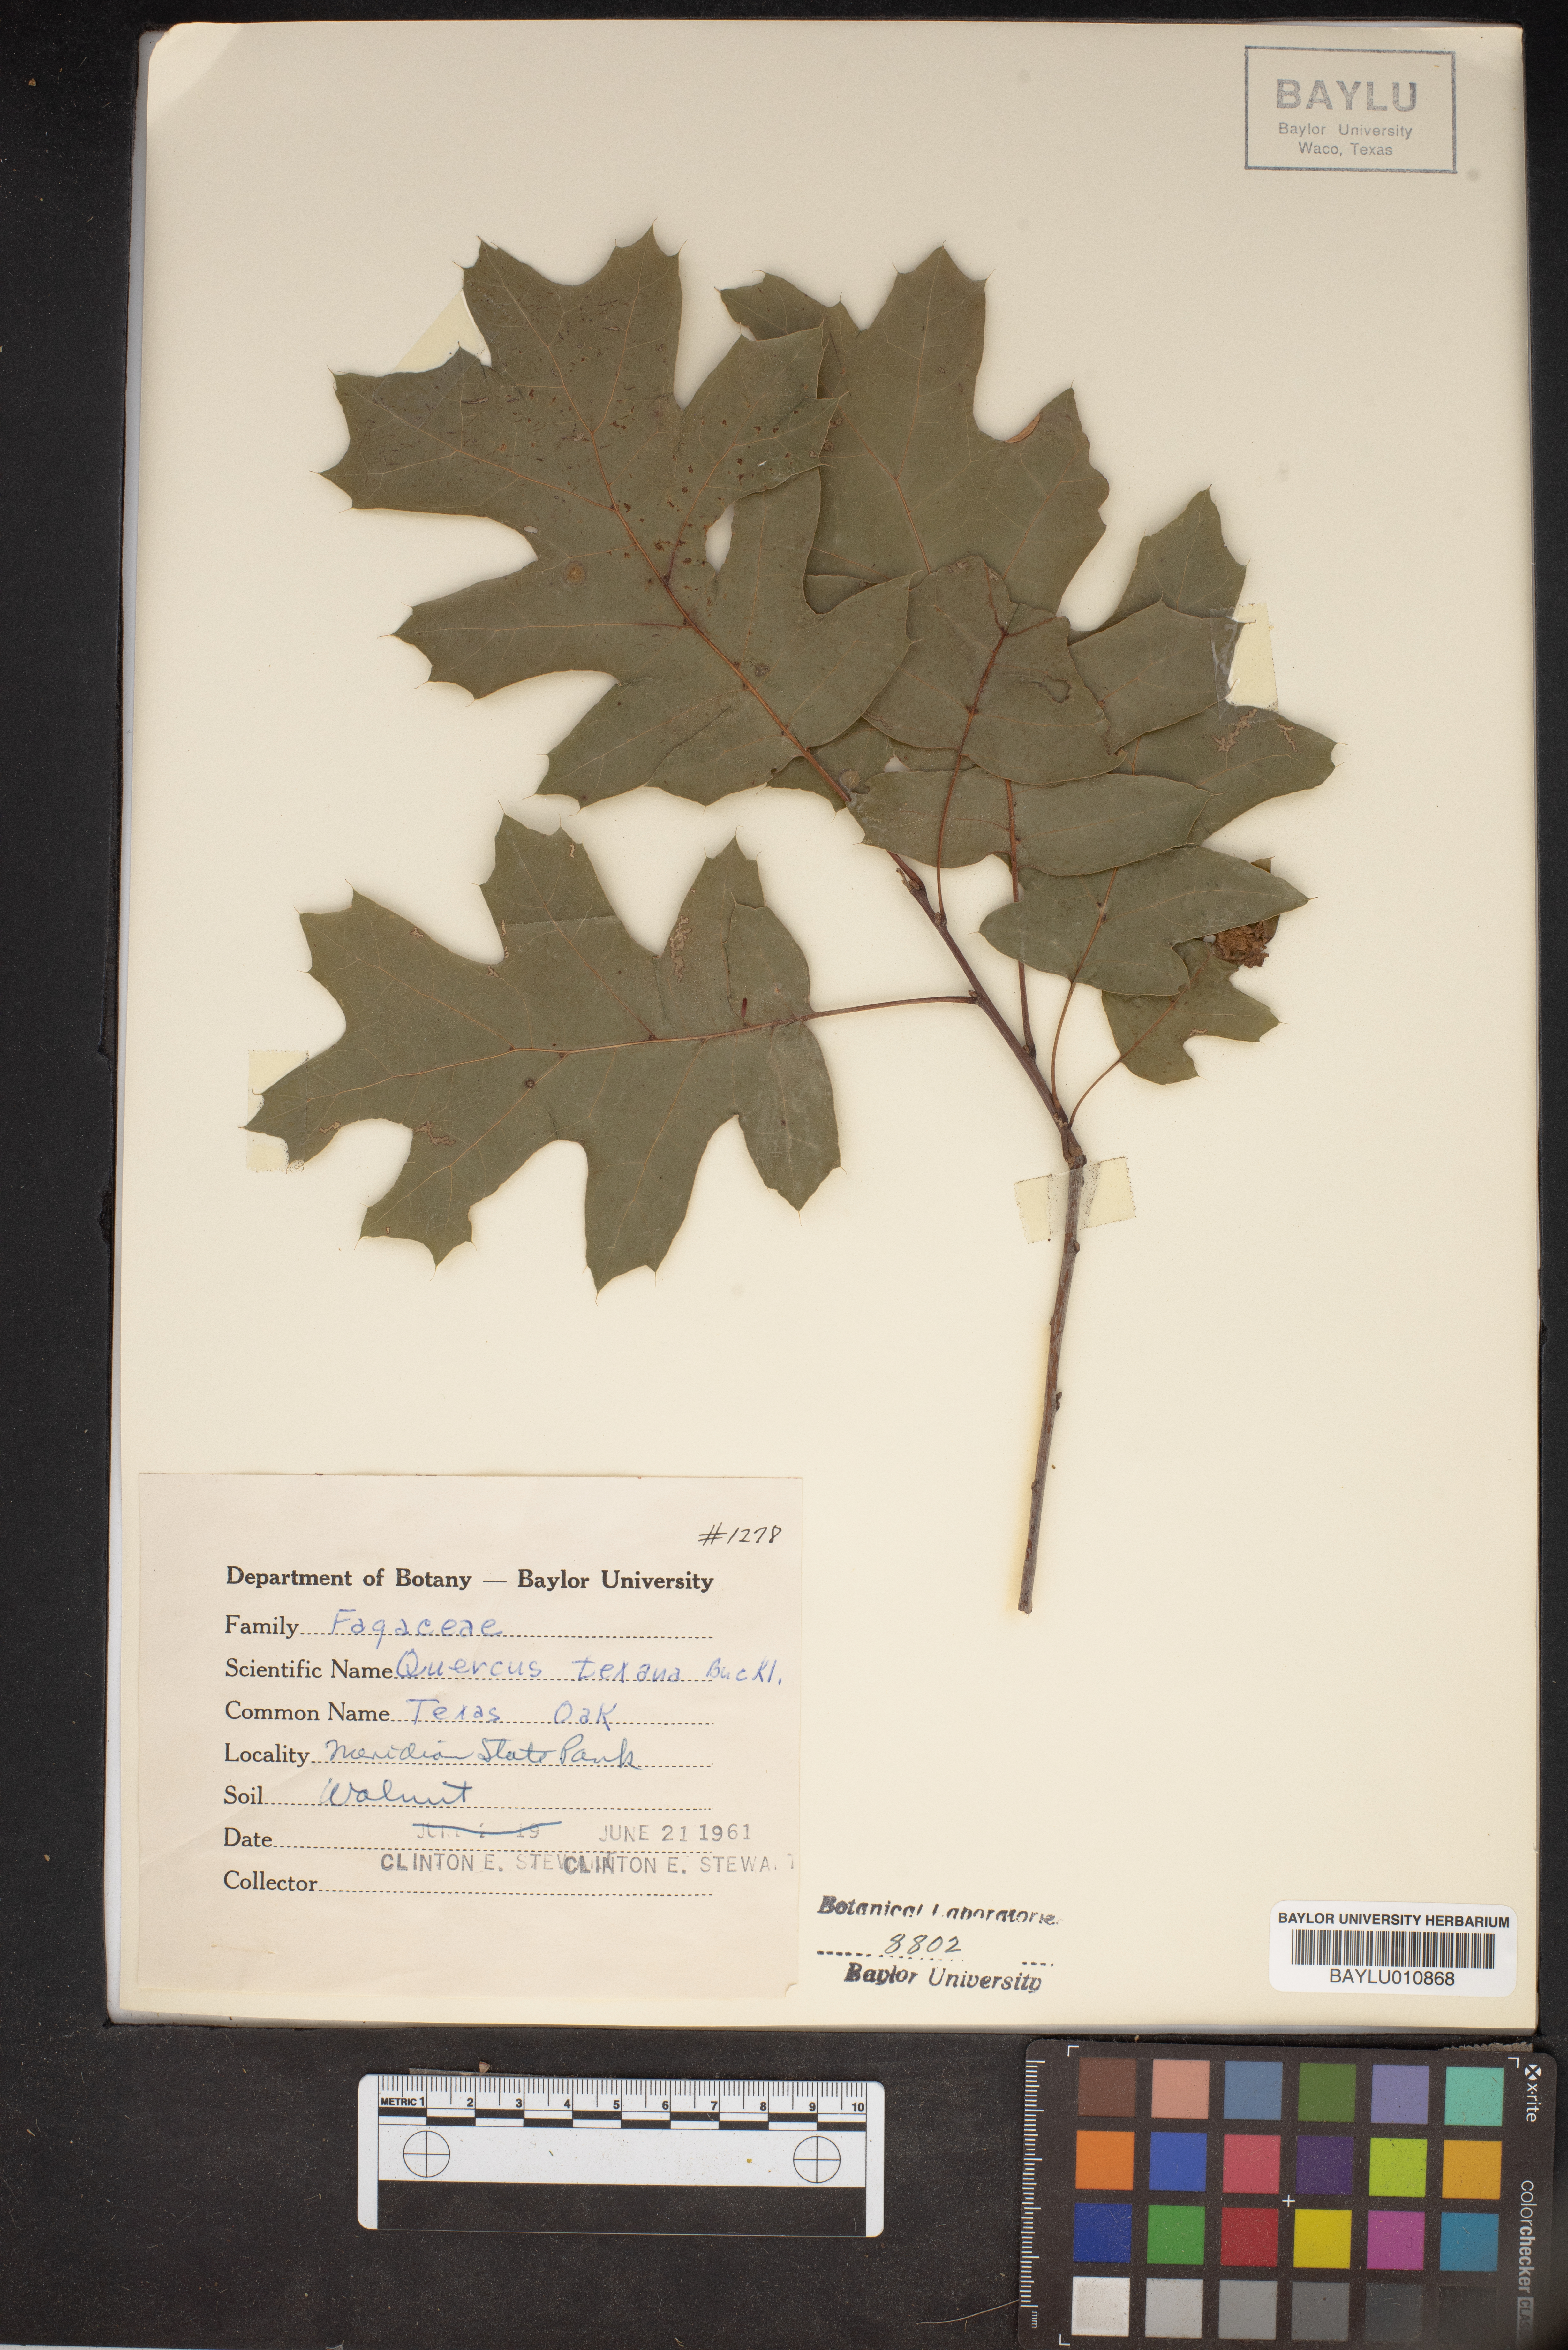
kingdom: Plantae
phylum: Tracheophyta
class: Magnoliopsida
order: Fagales
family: Fagaceae
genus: Quercus
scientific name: Quercus texana
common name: Nuttall oak
